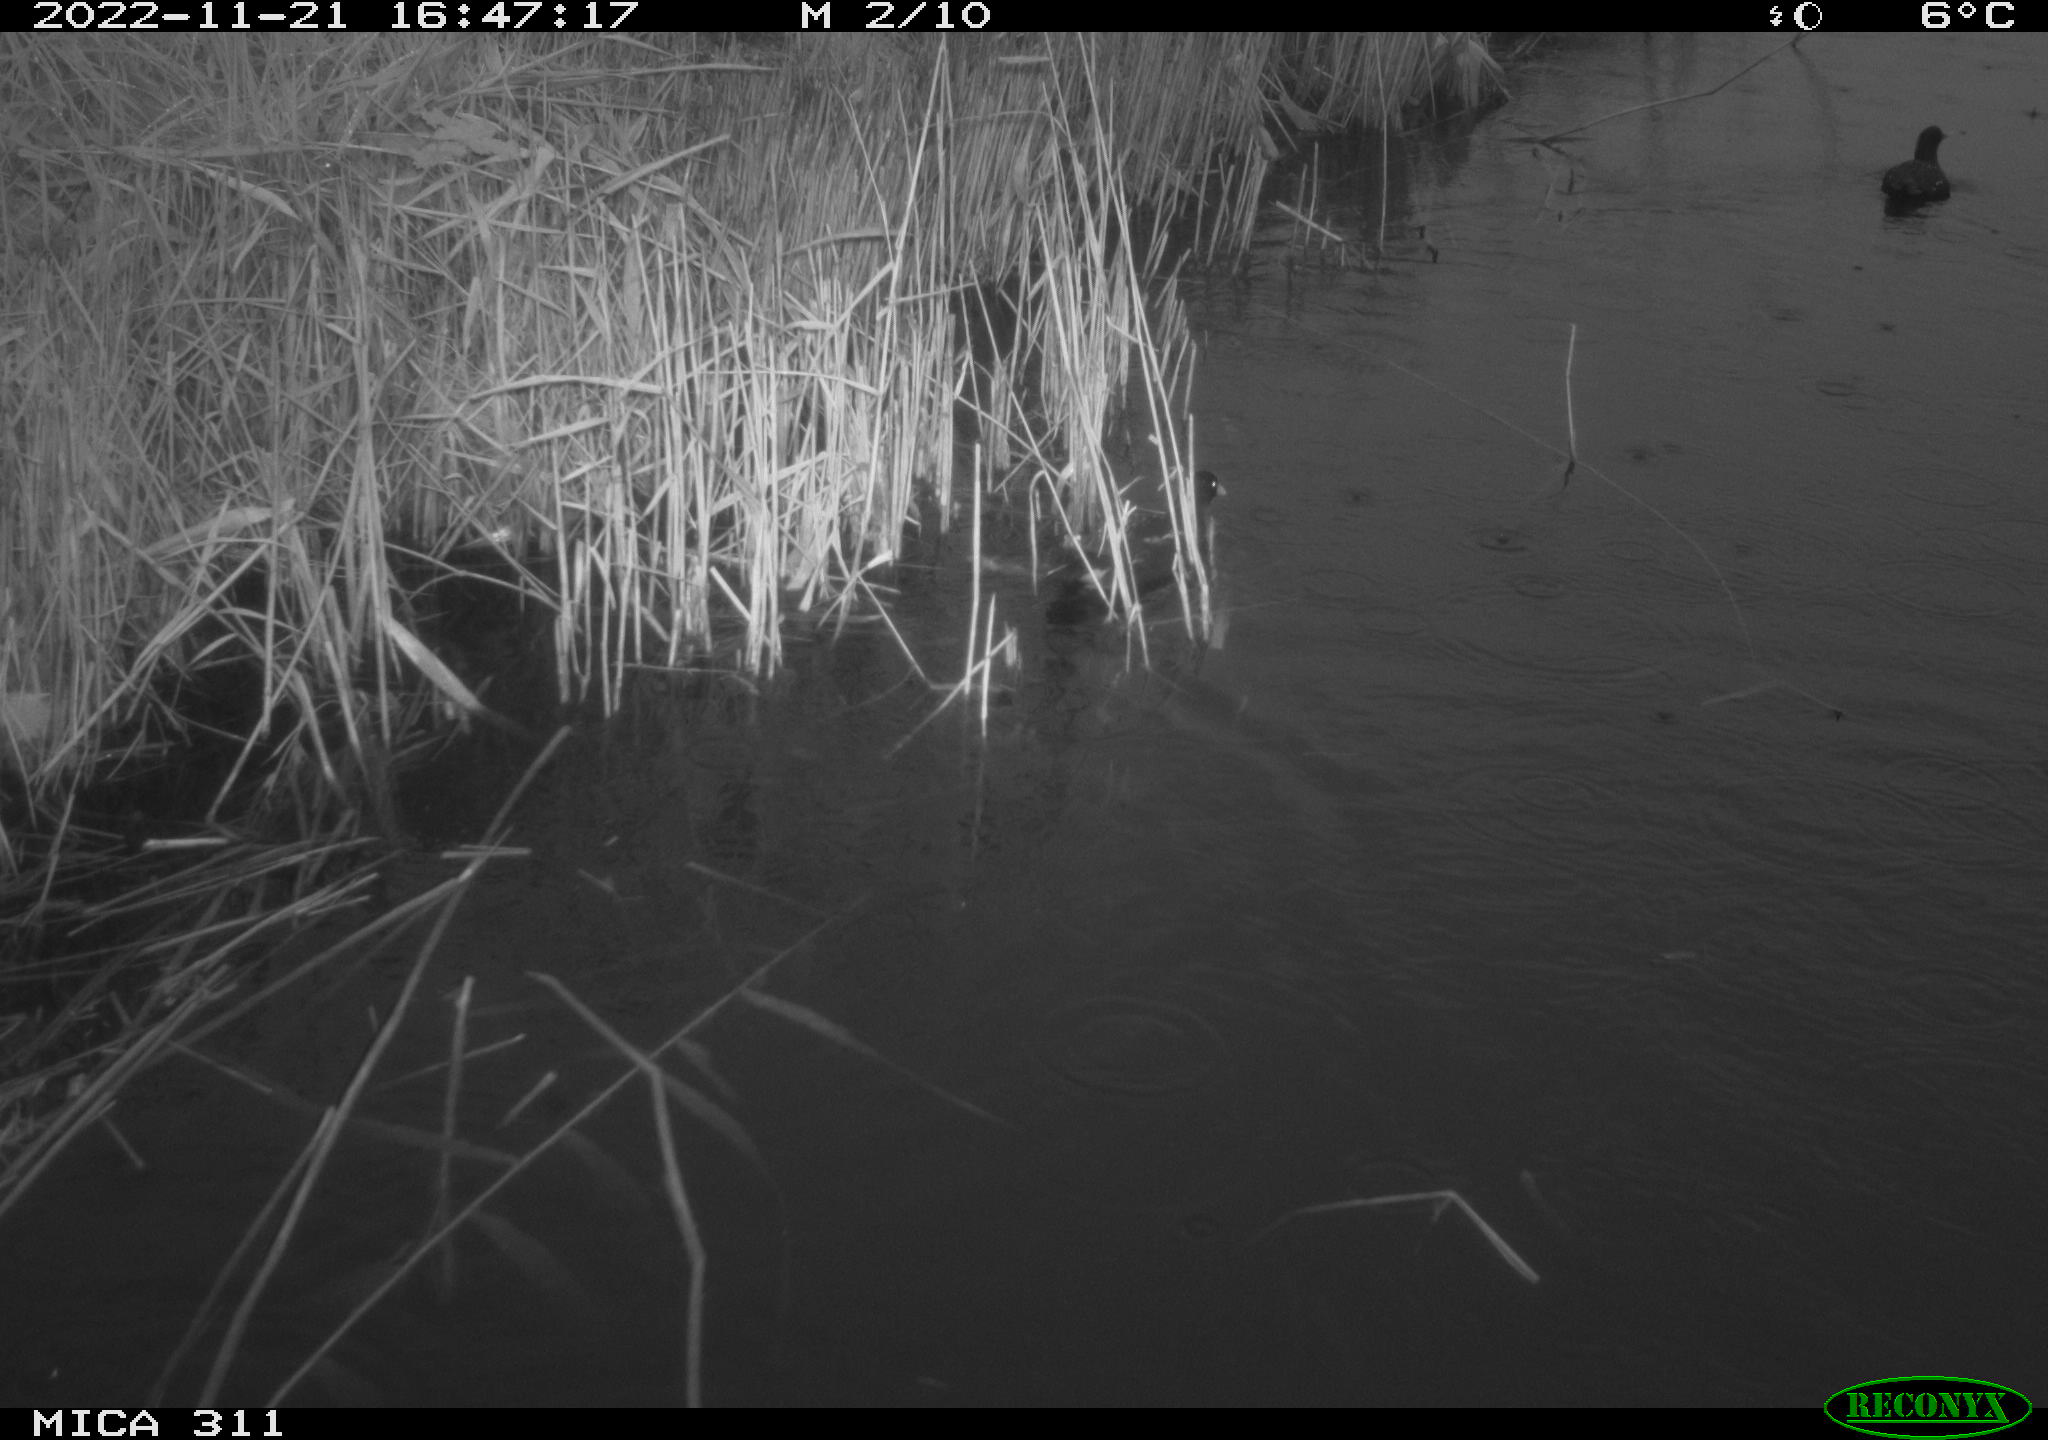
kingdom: Animalia
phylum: Chordata
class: Aves
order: Gruiformes
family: Rallidae
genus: Gallinula
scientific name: Gallinula chloropus
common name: Common moorhen
